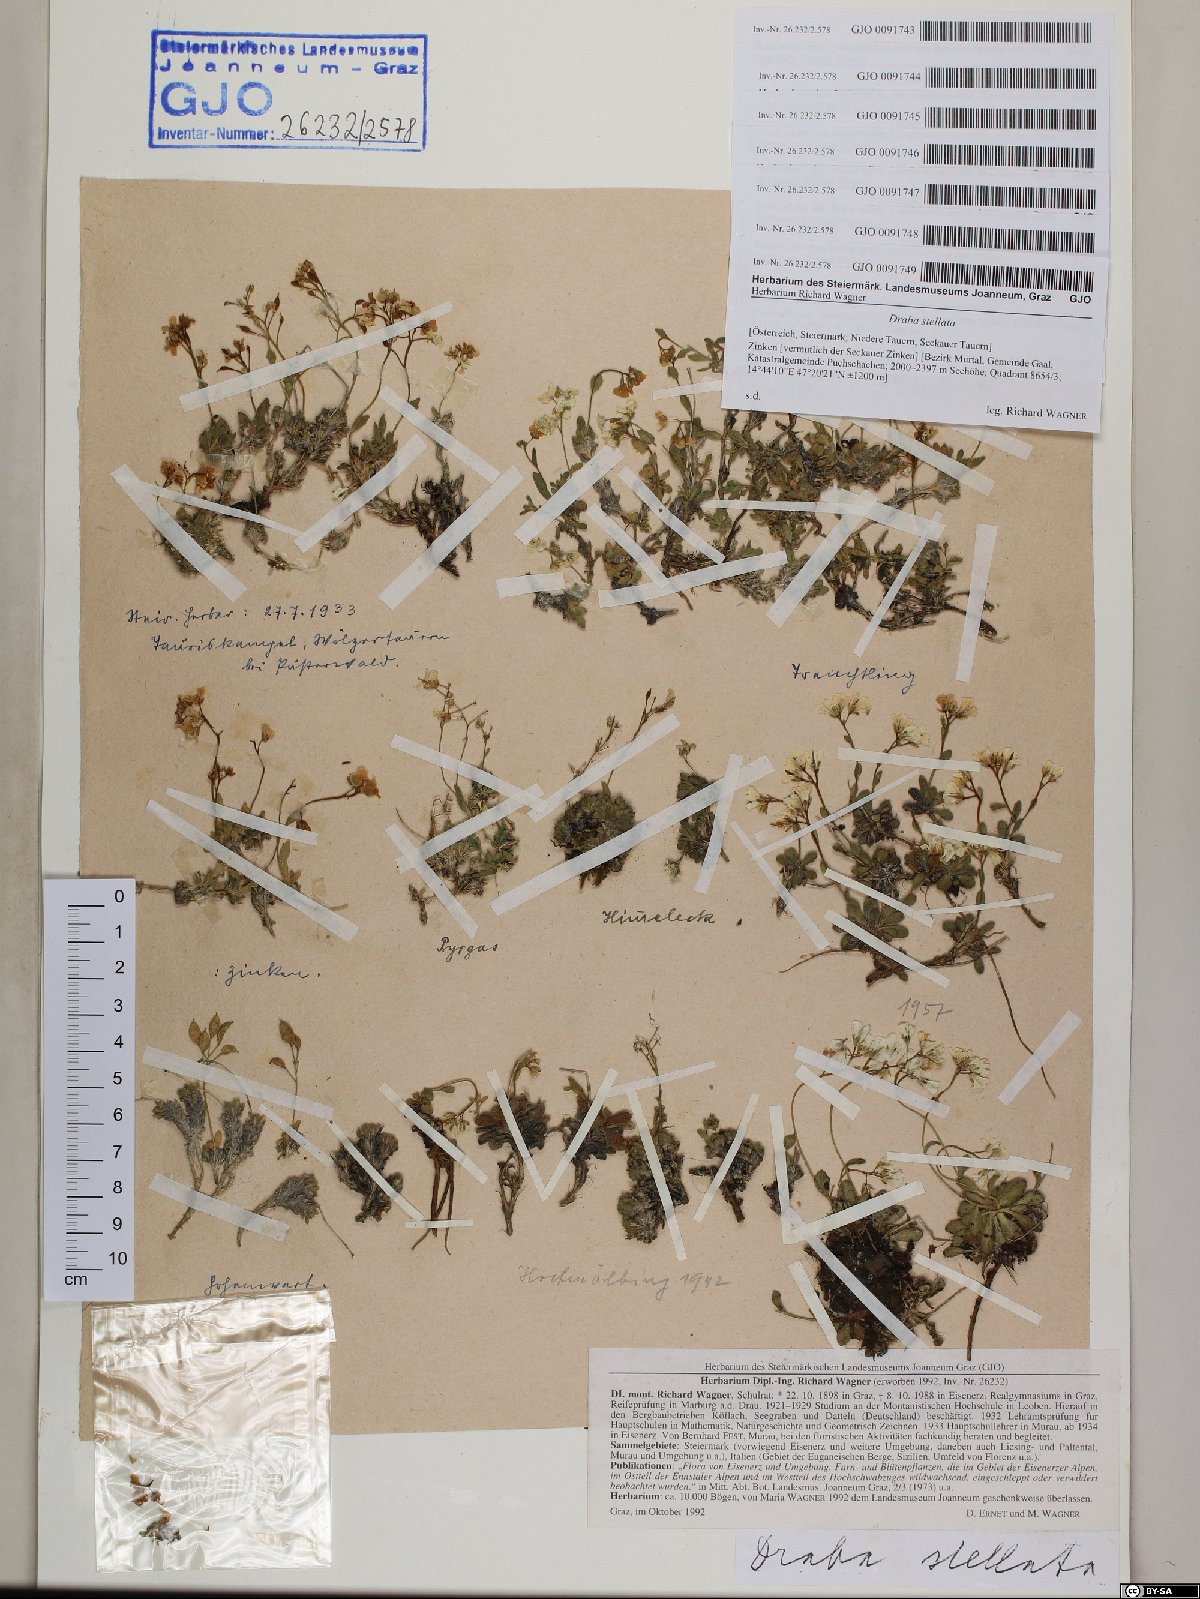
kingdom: Plantae
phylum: Tracheophyta
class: Magnoliopsida
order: Brassicales
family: Brassicaceae
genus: Draba
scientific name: Draba stellata
